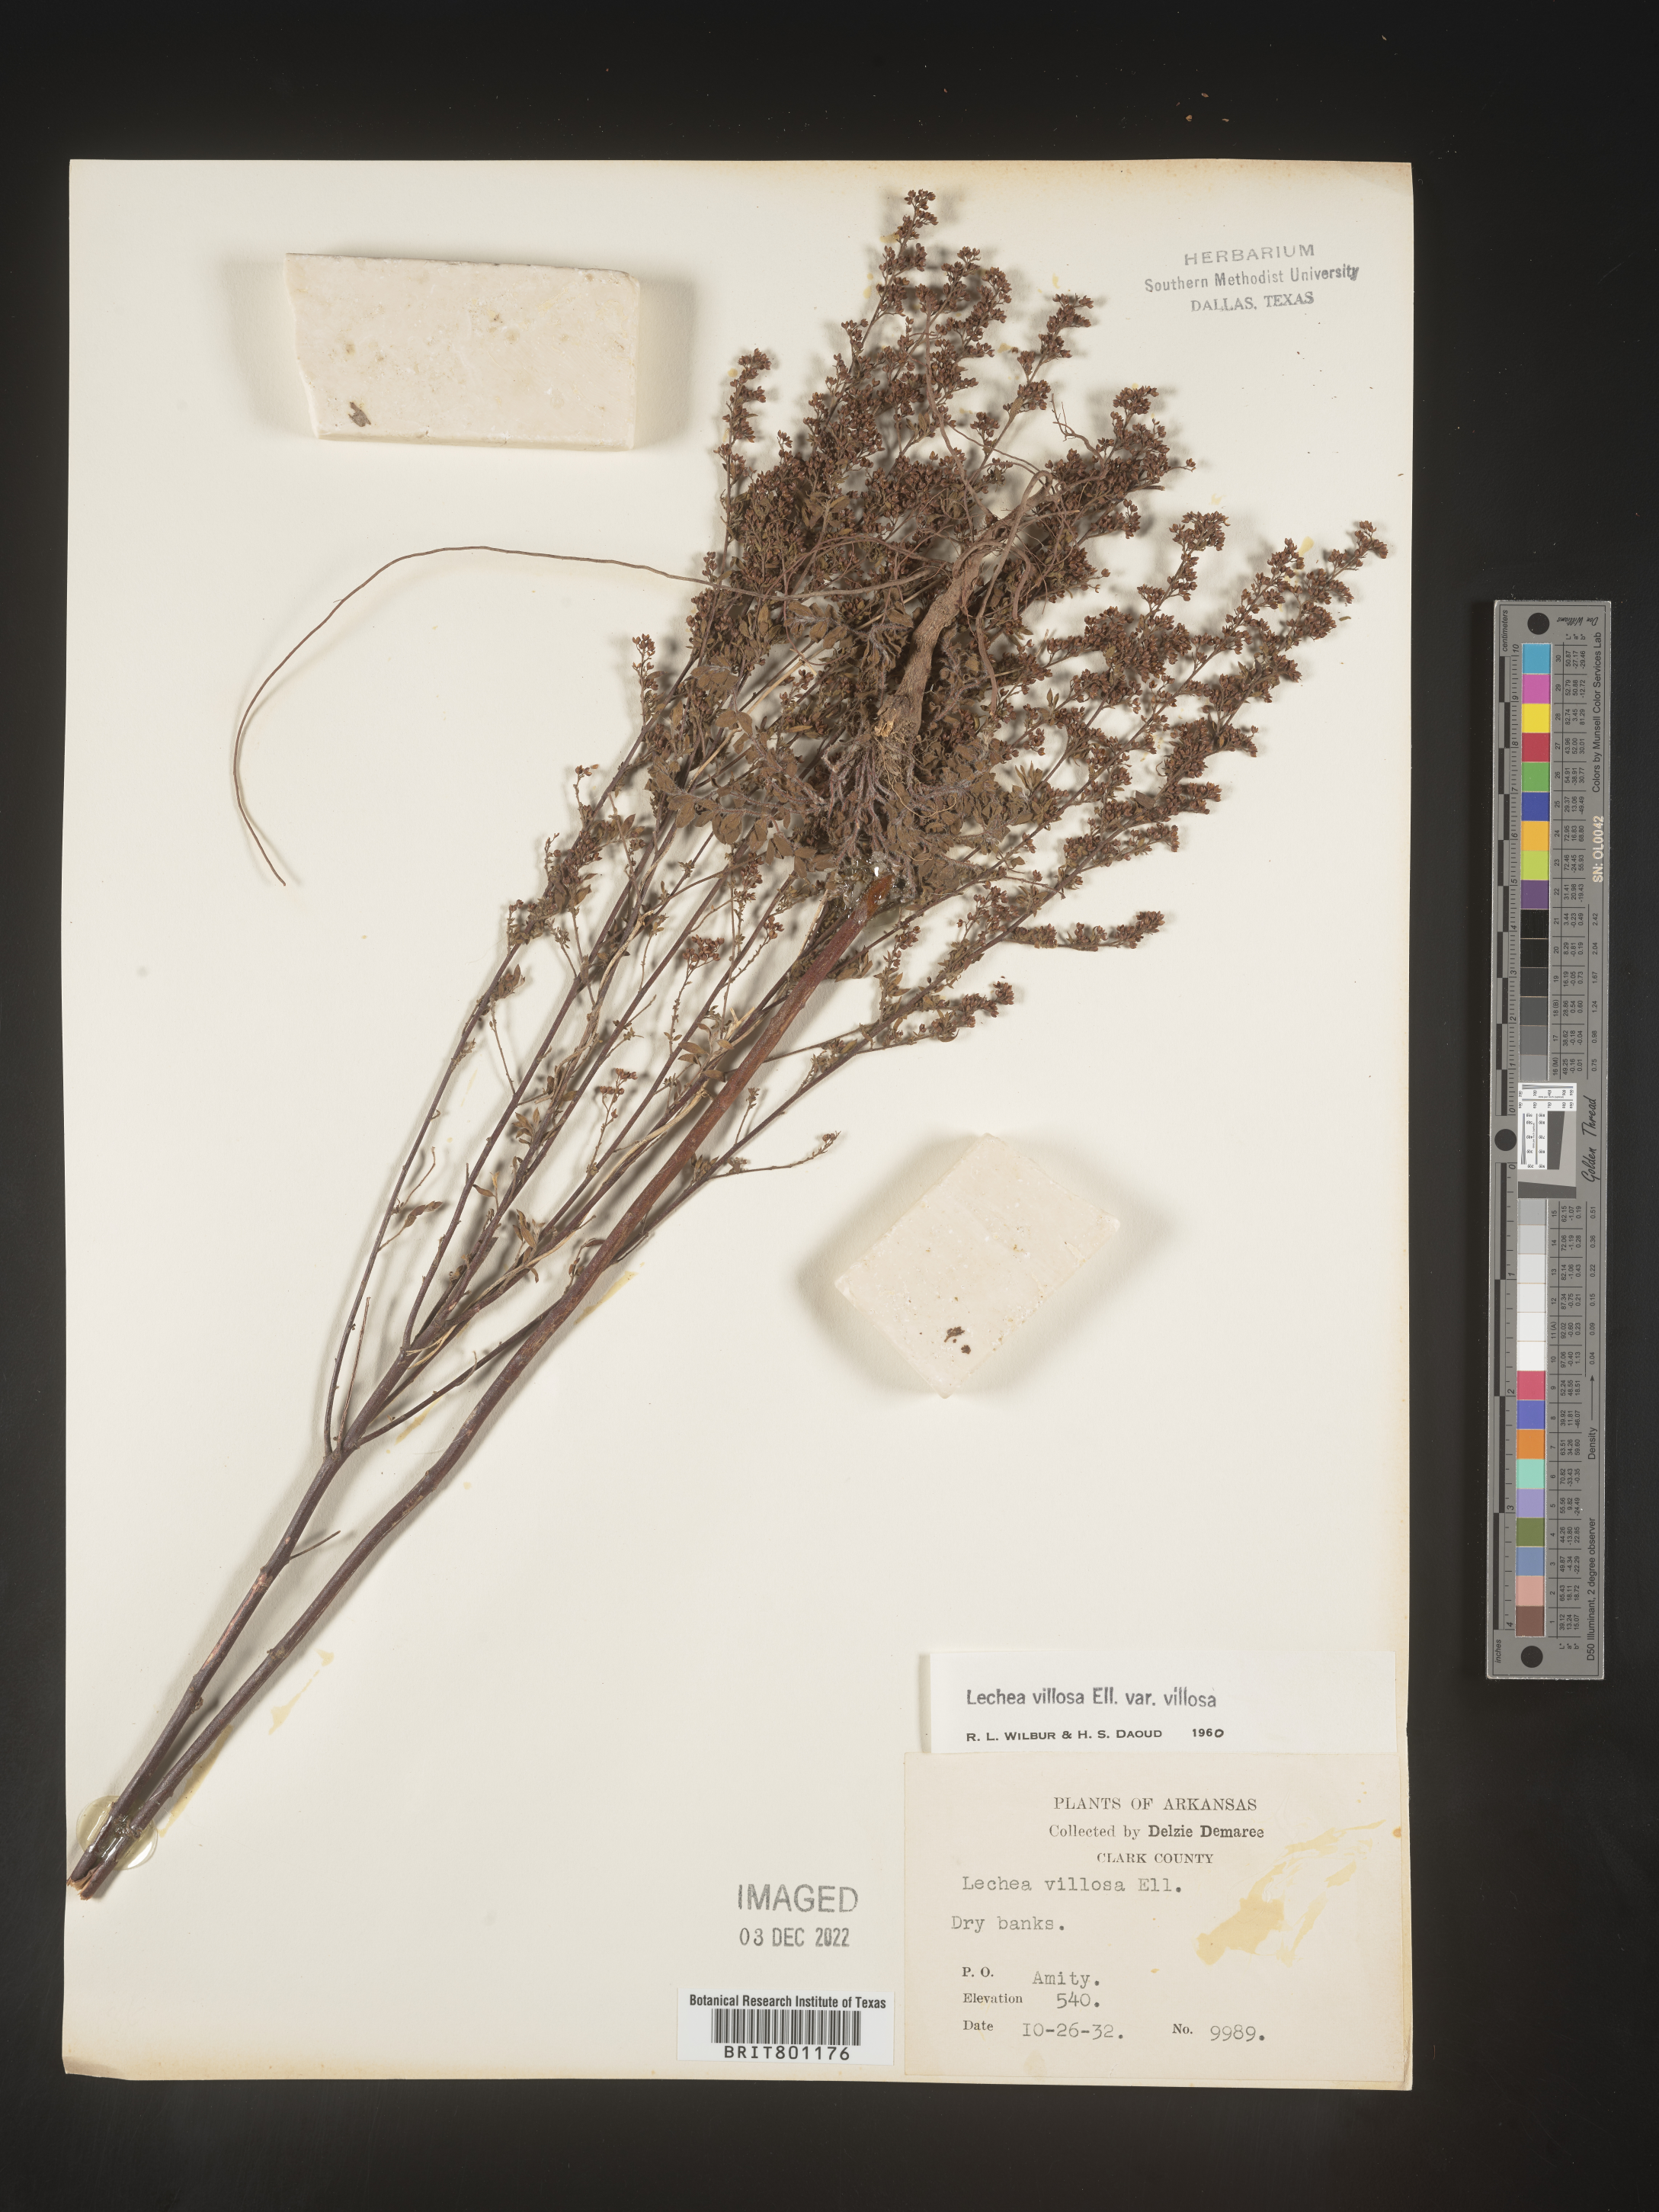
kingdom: Plantae
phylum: Tracheophyta
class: Magnoliopsida
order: Malvales
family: Cistaceae
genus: Lechea
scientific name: Lechea mucronata
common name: Hairy pinweed
